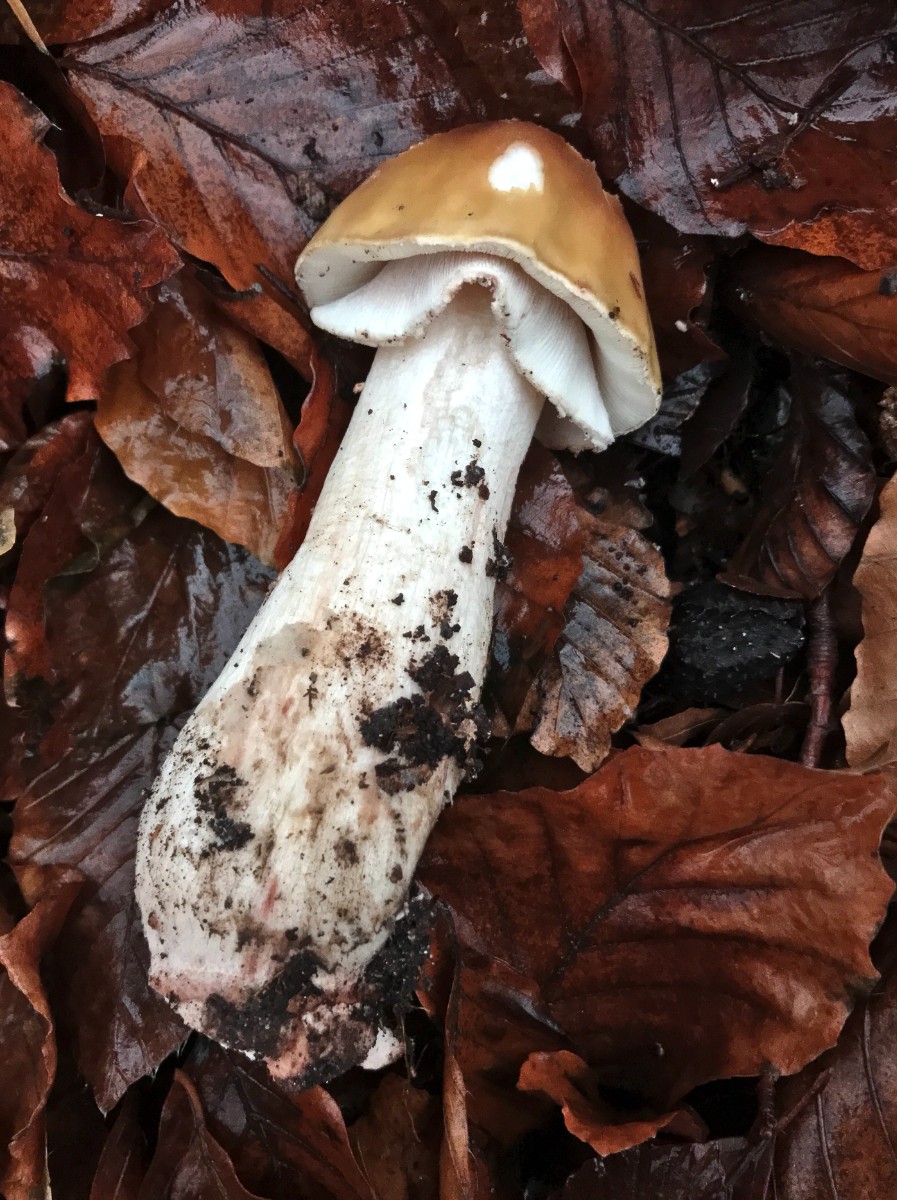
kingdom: Fungi
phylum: Basidiomycota
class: Agaricomycetes
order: Agaricales
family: Amanitaceae
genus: Amanita
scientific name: Amanita rubescens
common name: rødmende fluesvamp
